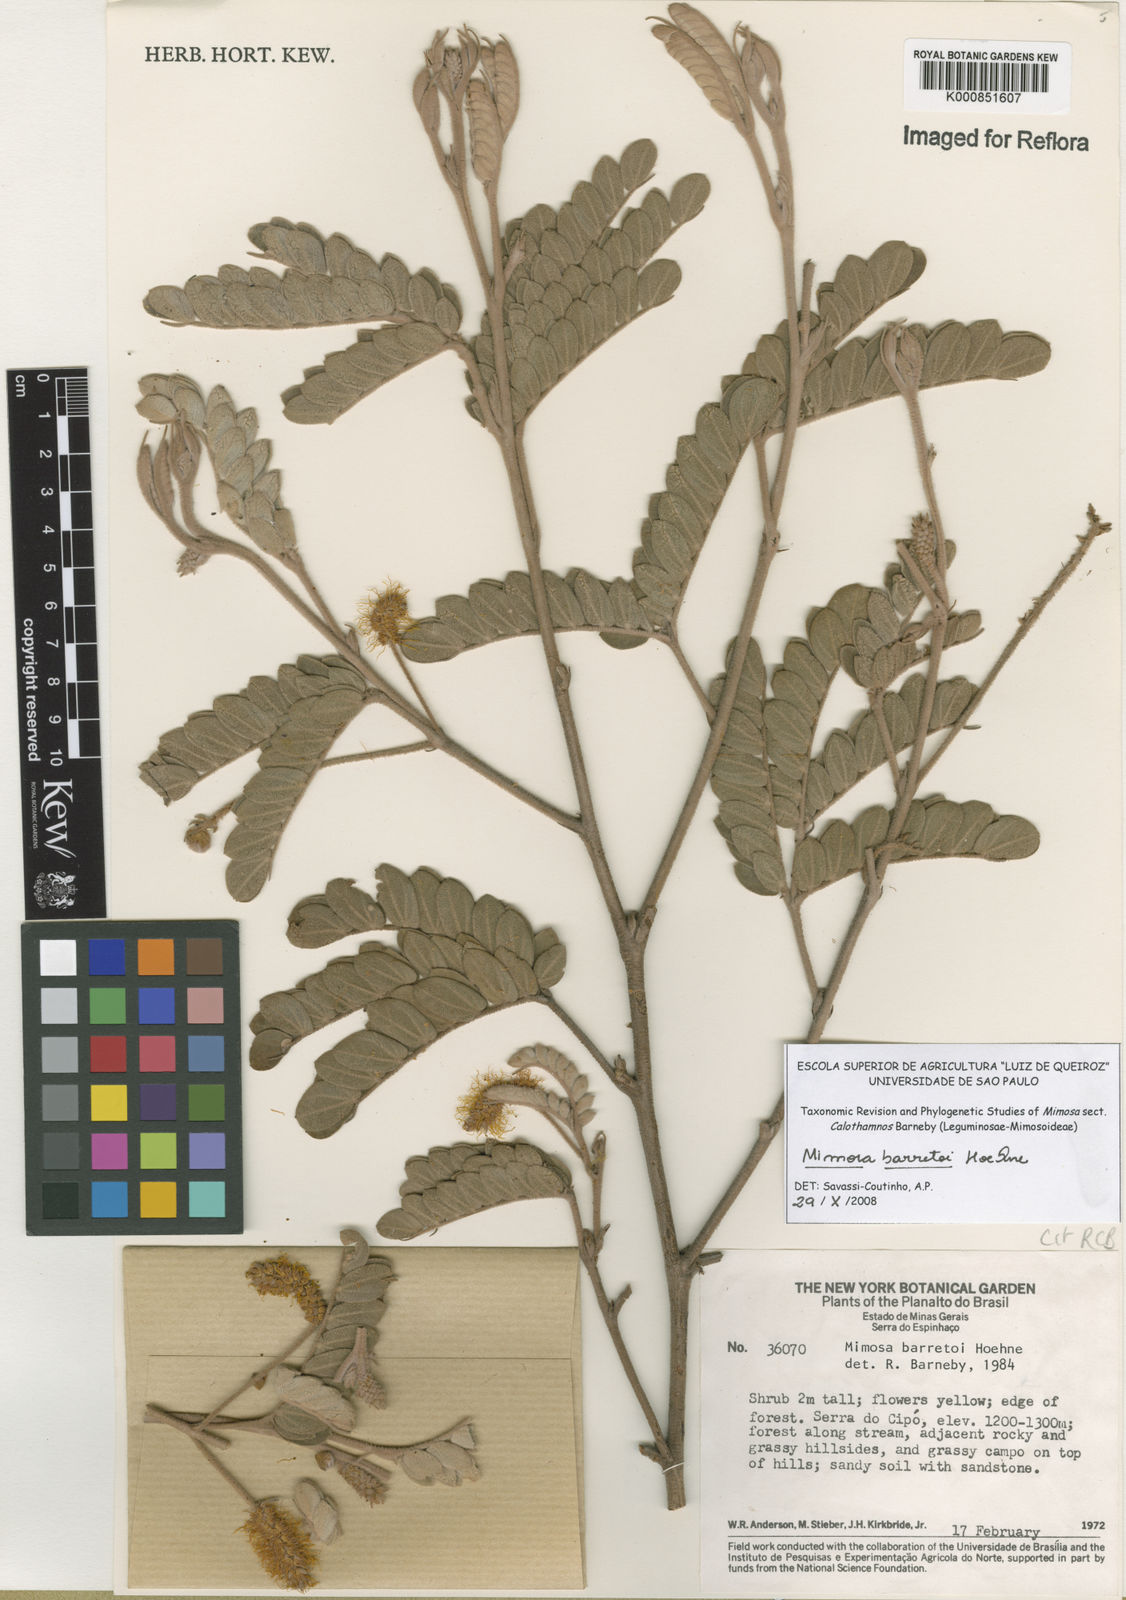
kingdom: Plantae
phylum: Tracheophyta
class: Magnoliopsida
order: Fabales
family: Fabaceae
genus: Mimosa
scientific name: Mimosa barretoi
